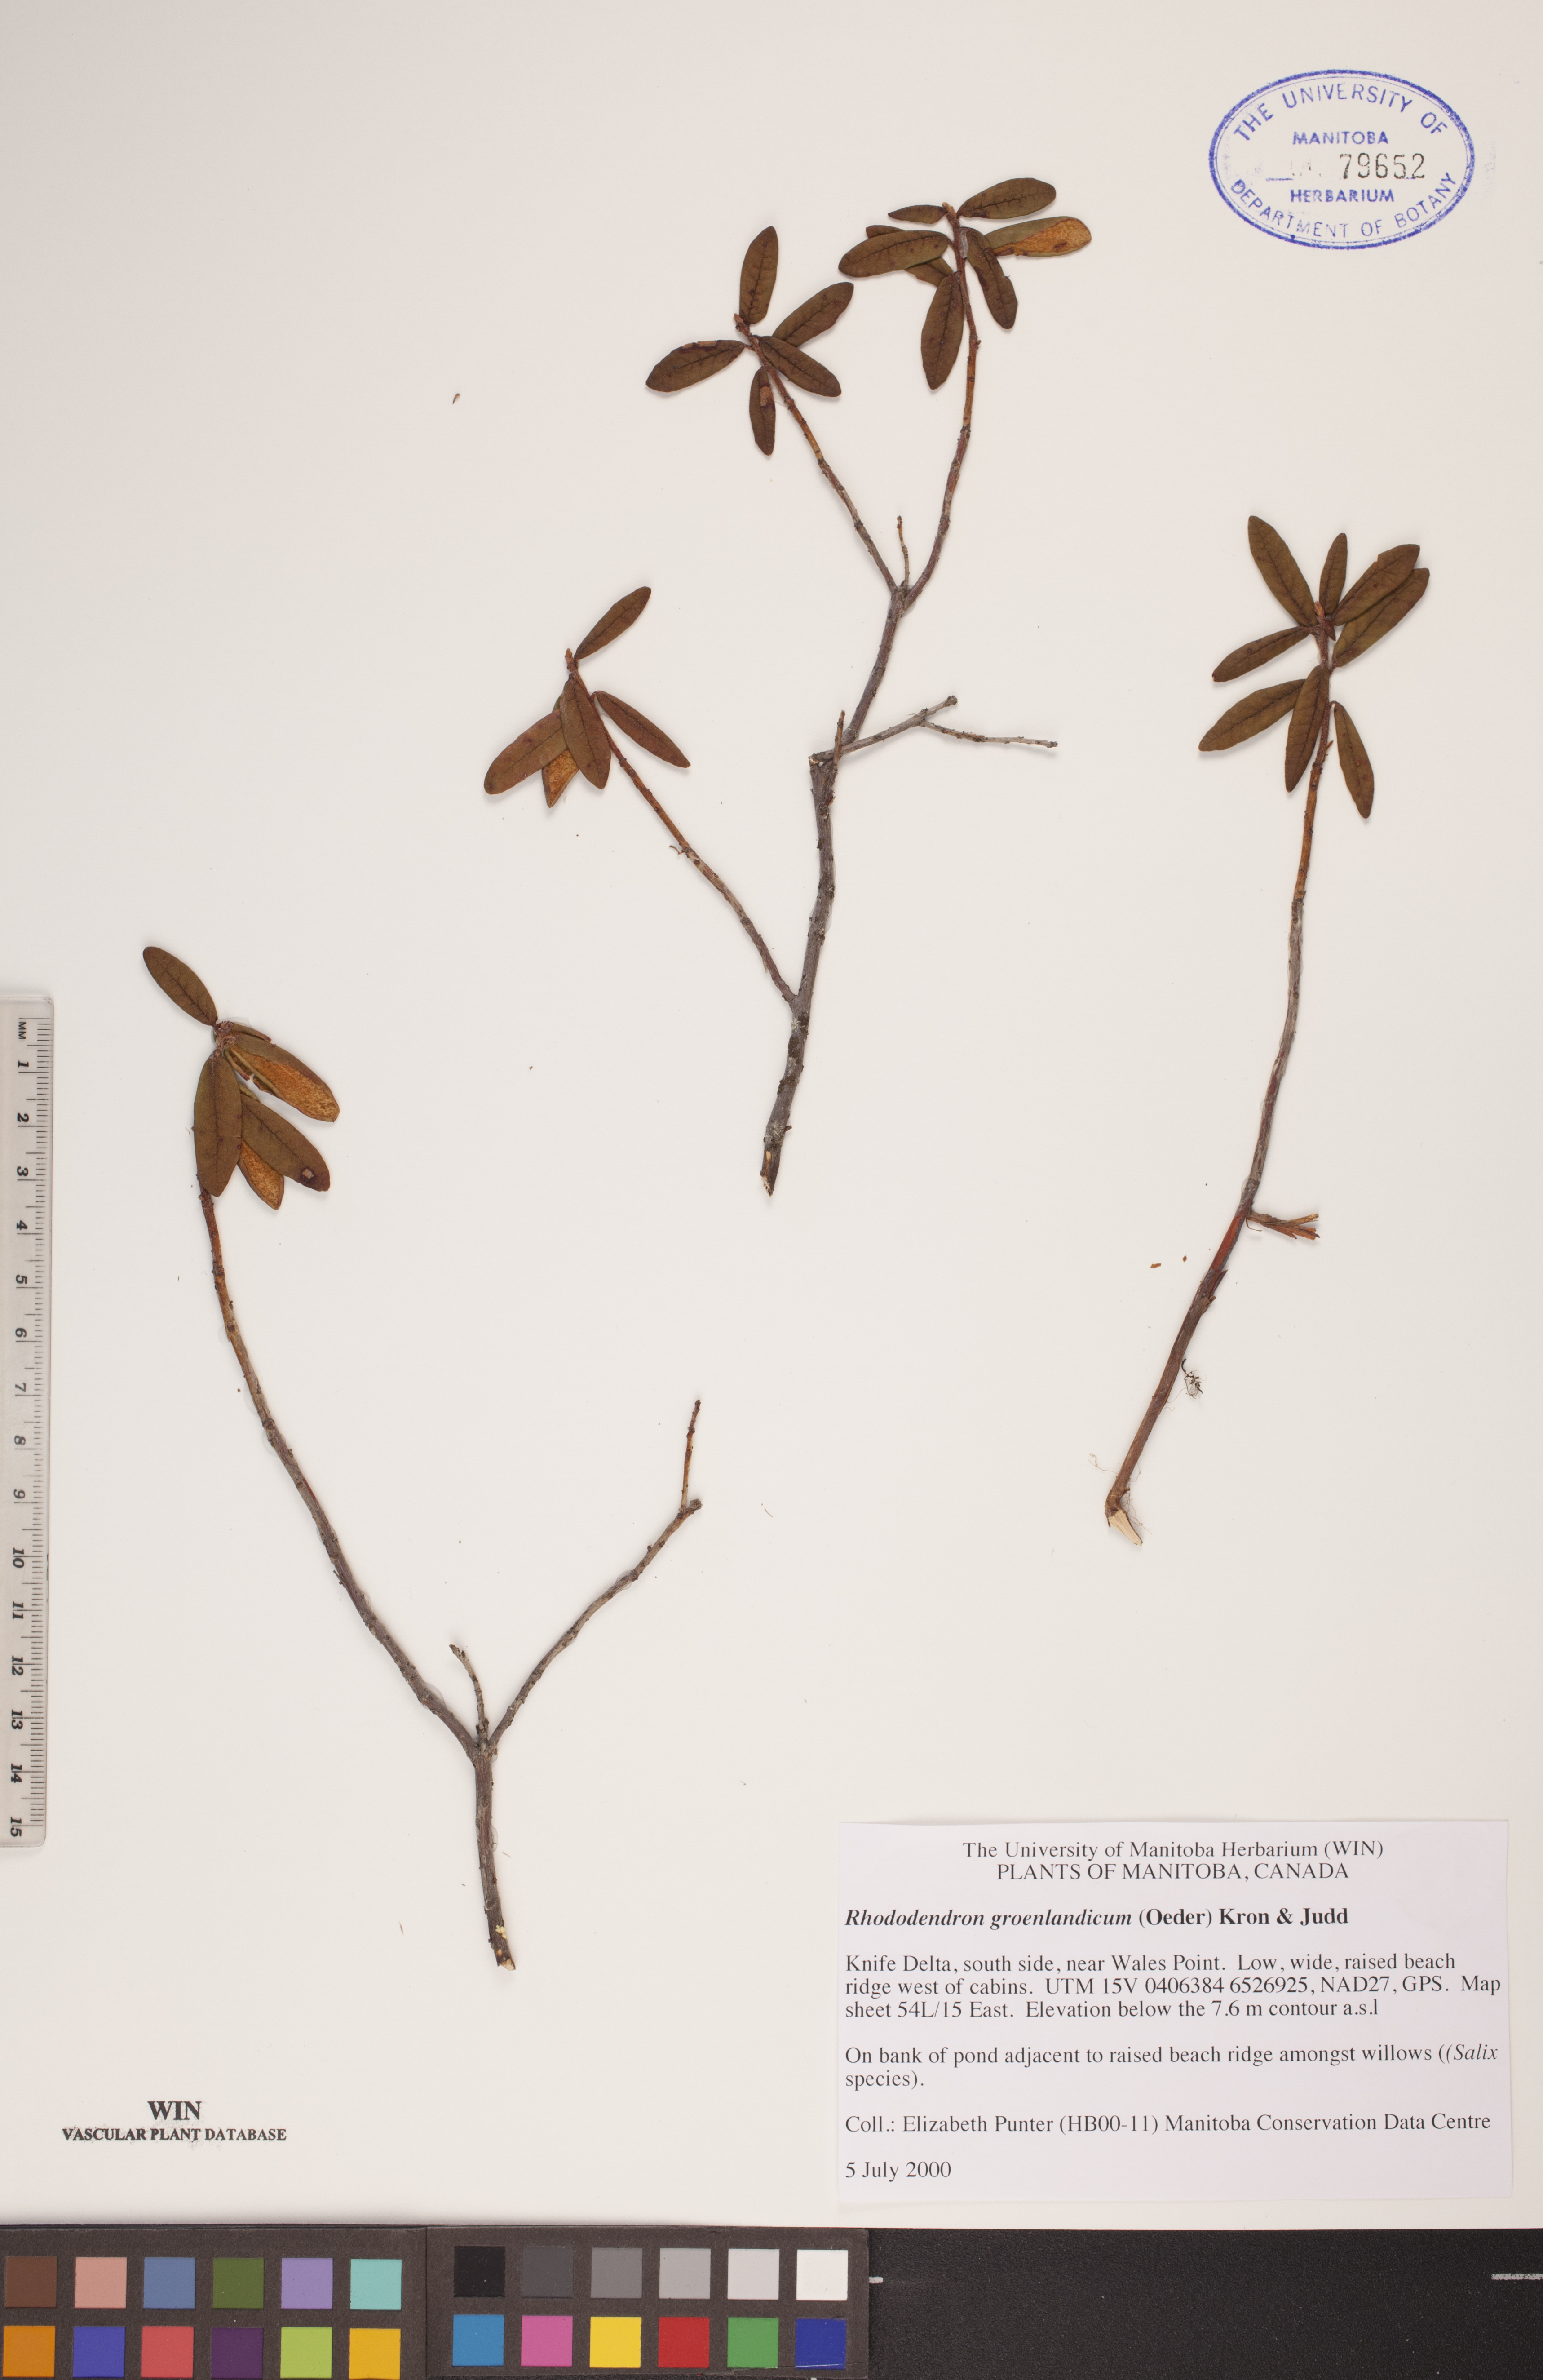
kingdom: Plantae
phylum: Tracheophyta
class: Magnoliopsida
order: Ericales
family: Ericaceae
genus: Rhododendron
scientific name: Rhododendron groenlandicum
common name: Bog labrador tea
